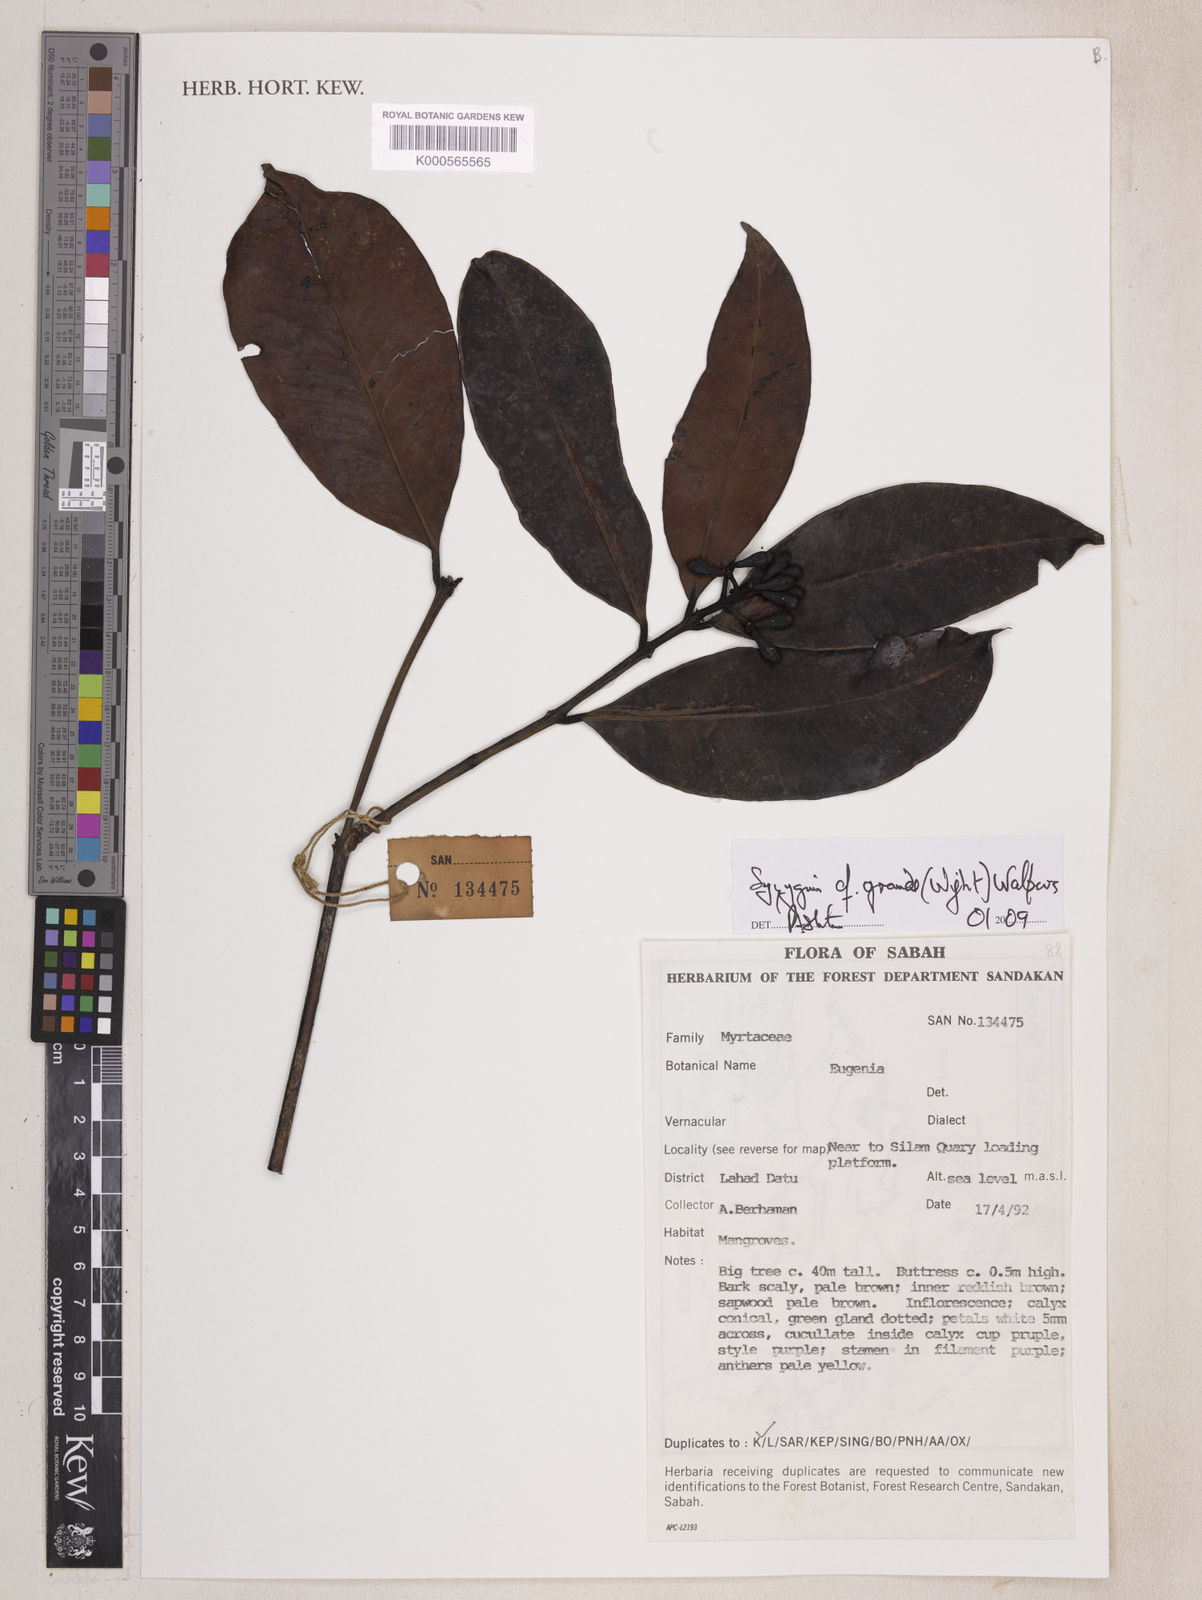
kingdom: Plantae
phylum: Tracheophyta
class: Magnoliopsida
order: Myrtales
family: Myrtaceae
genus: Syzygium
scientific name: Syzygium grande
